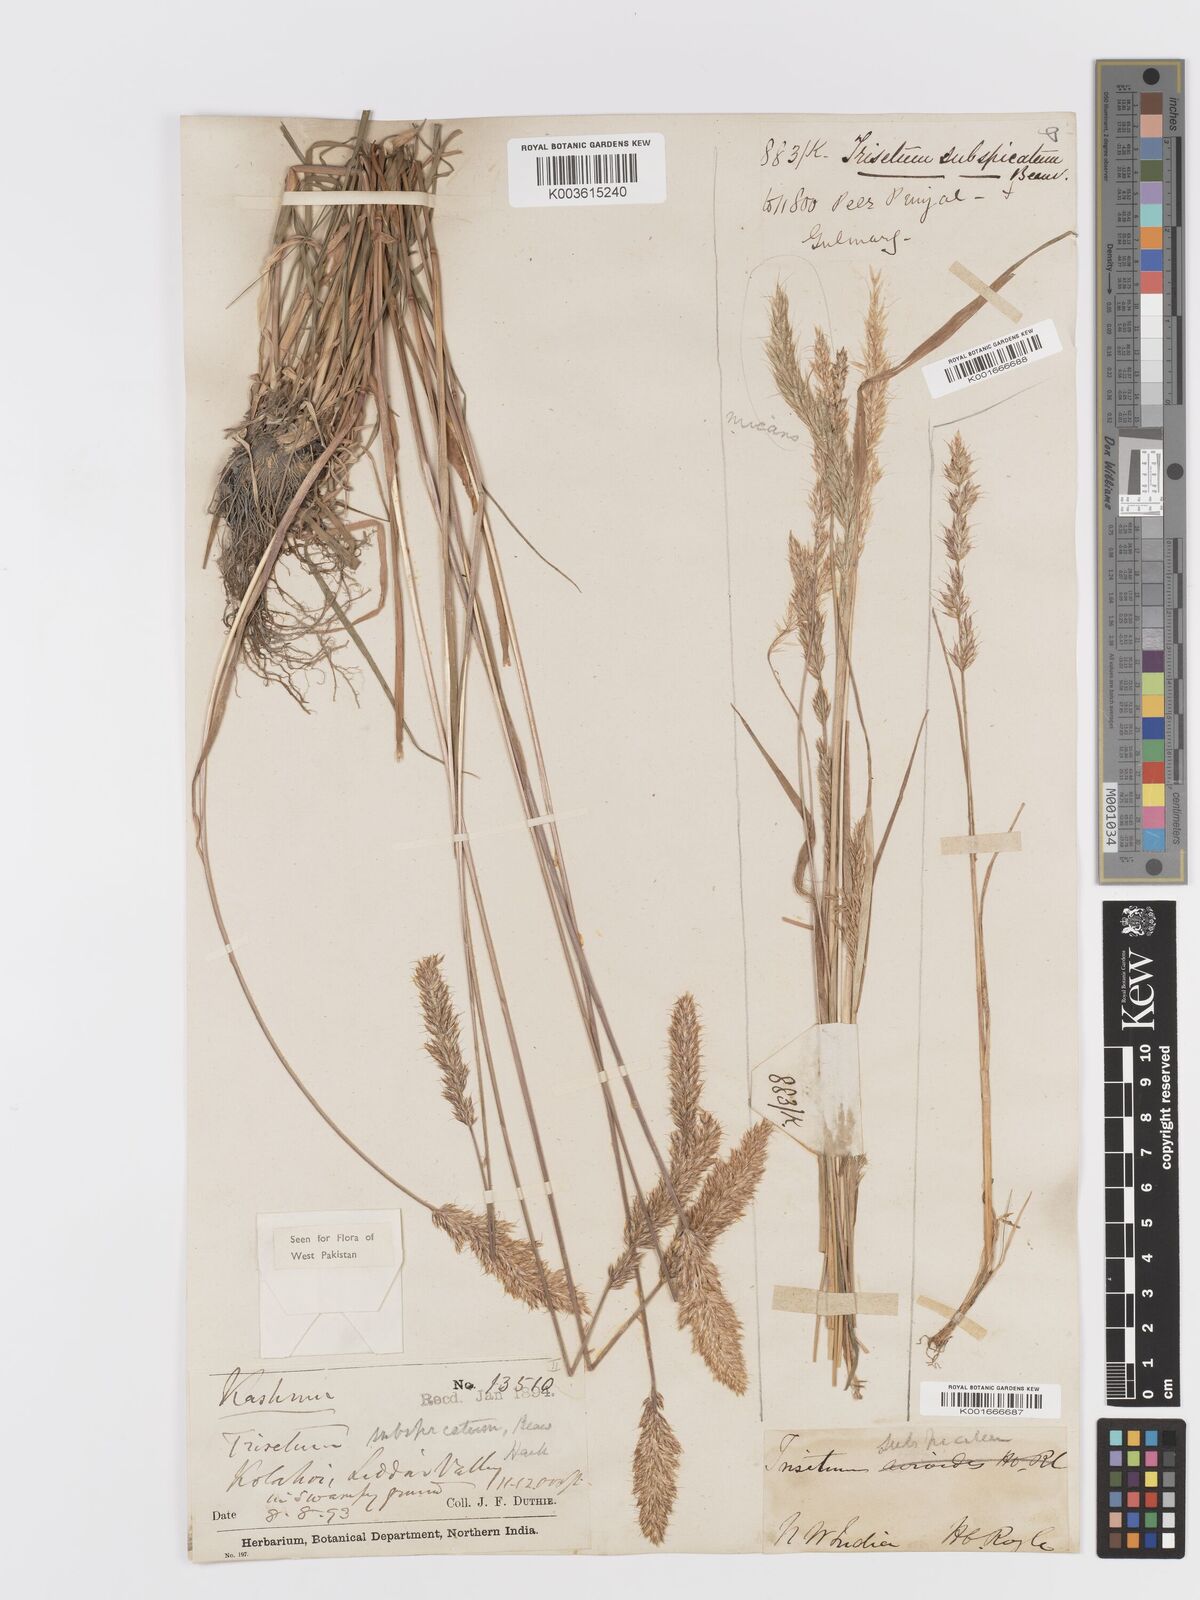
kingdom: Plantae
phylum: Tracheophyta
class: Liliopsida
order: Poales
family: Poaceae
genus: Koeleria
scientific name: Koeleria spicata
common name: Mountain trisetum
